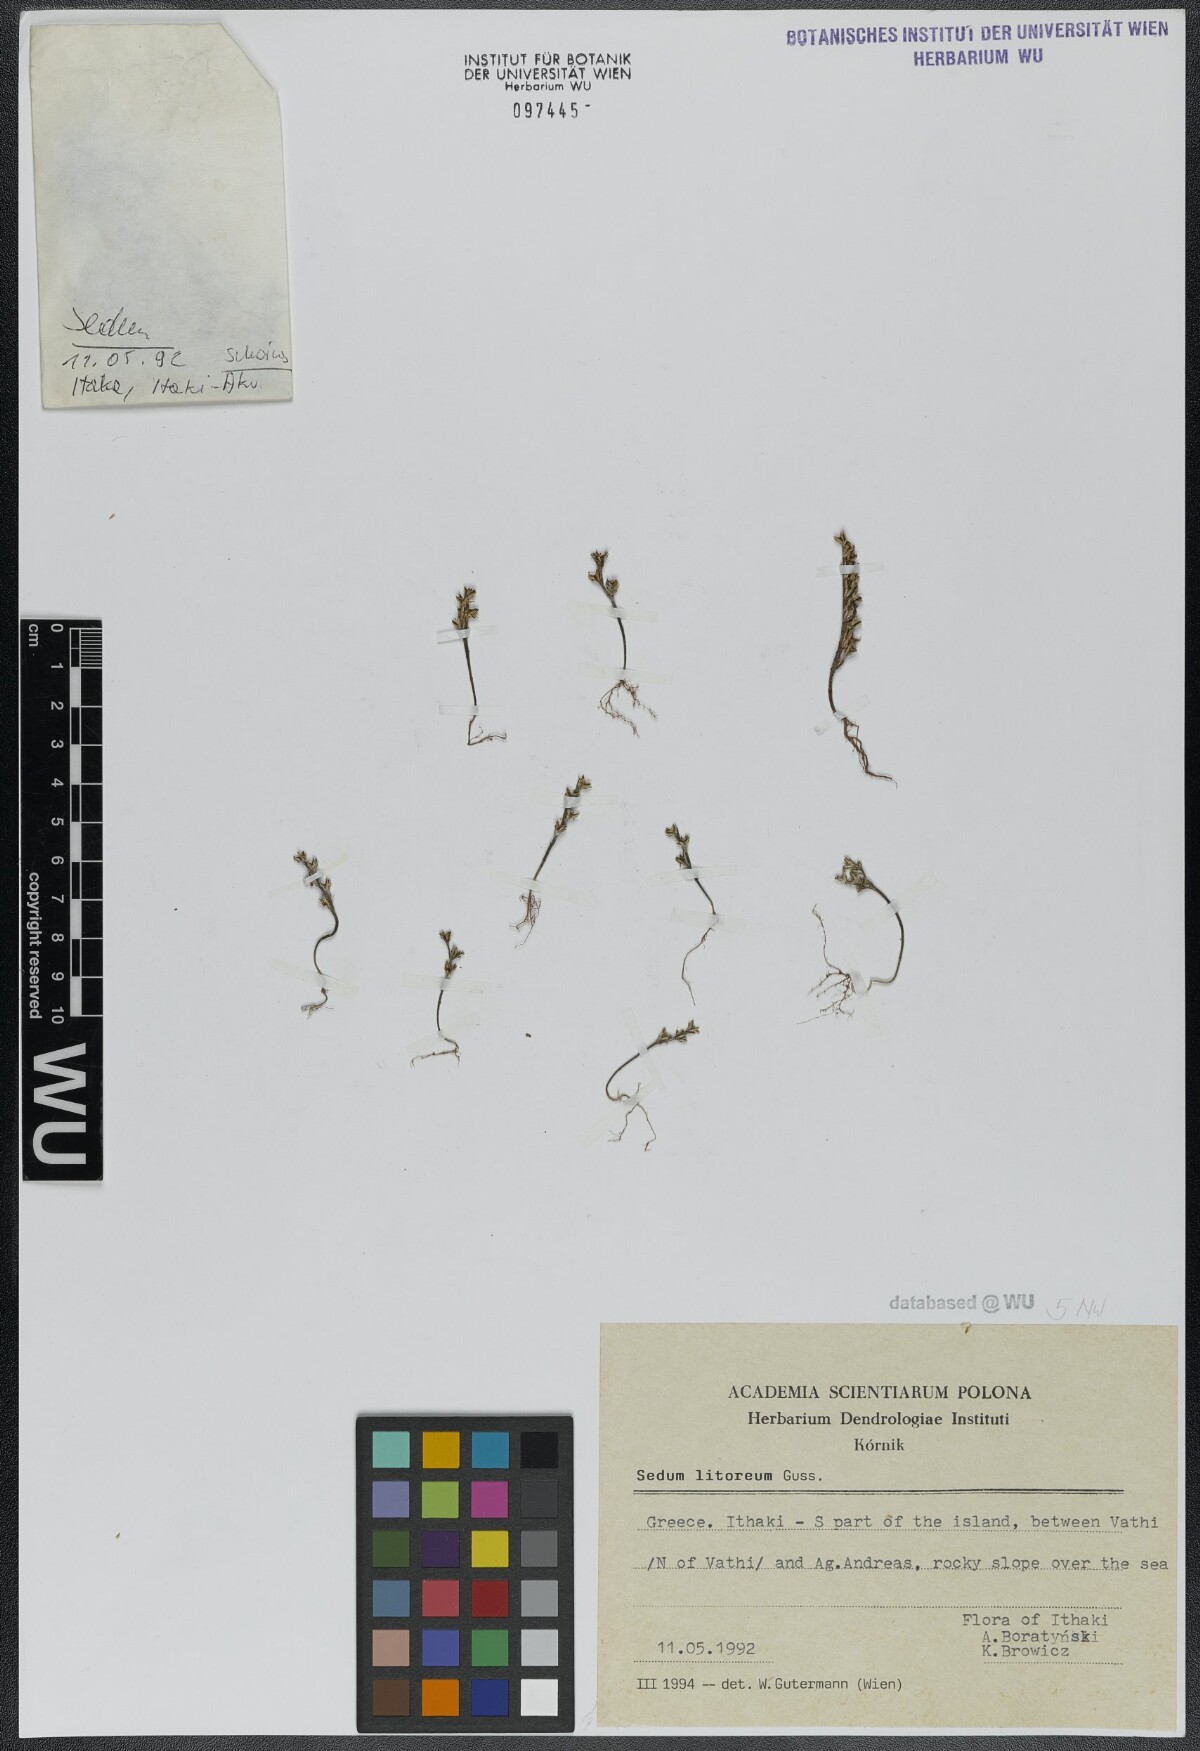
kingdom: Plantae
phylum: Tracheophyta
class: Magnoliopsida
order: Saxifragales
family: Crassulaceae
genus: Sedum
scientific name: Sedum litoreum
